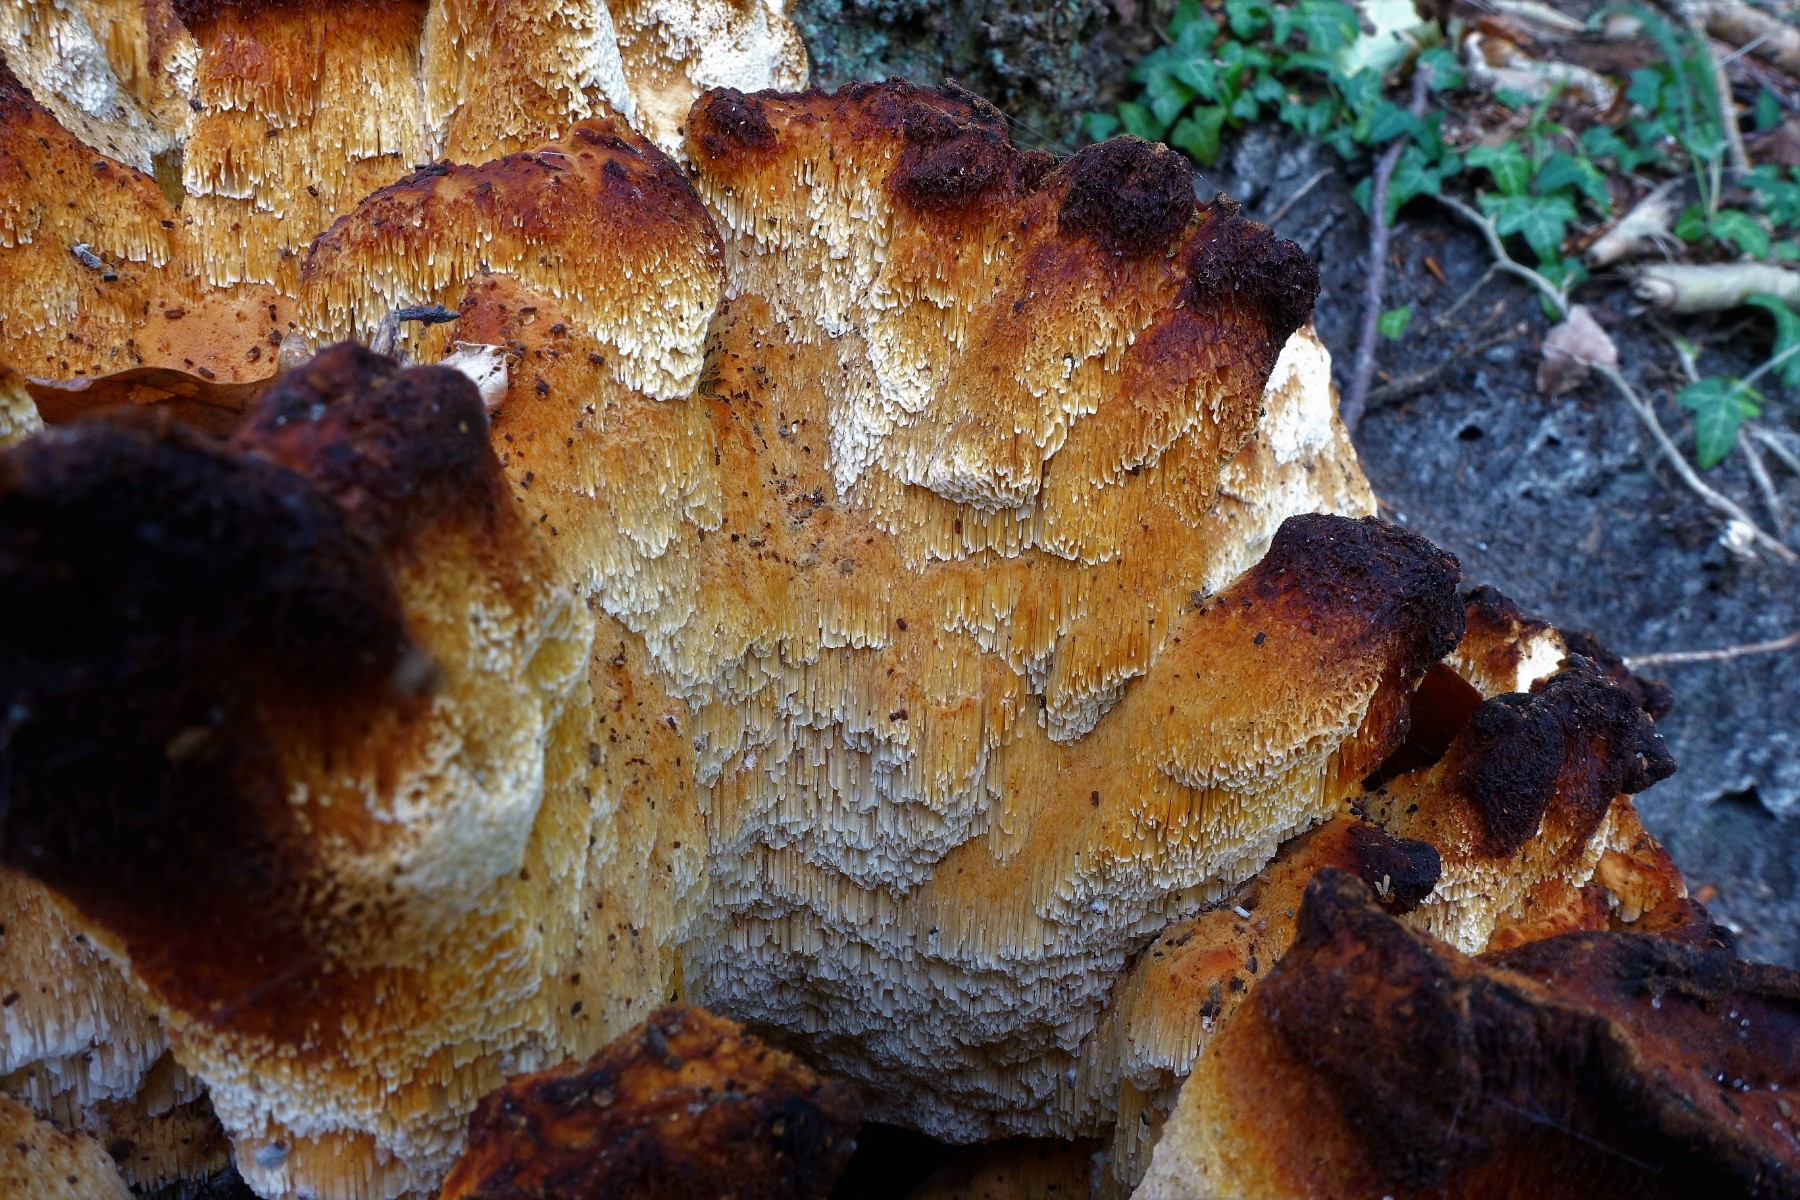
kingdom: Fungi
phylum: Basidiomycota
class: Agaricomycetes
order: Polyporales
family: Laetiporaceae
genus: Laetiporus
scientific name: Laetiporus sulphureus
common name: svovlporesvamp
